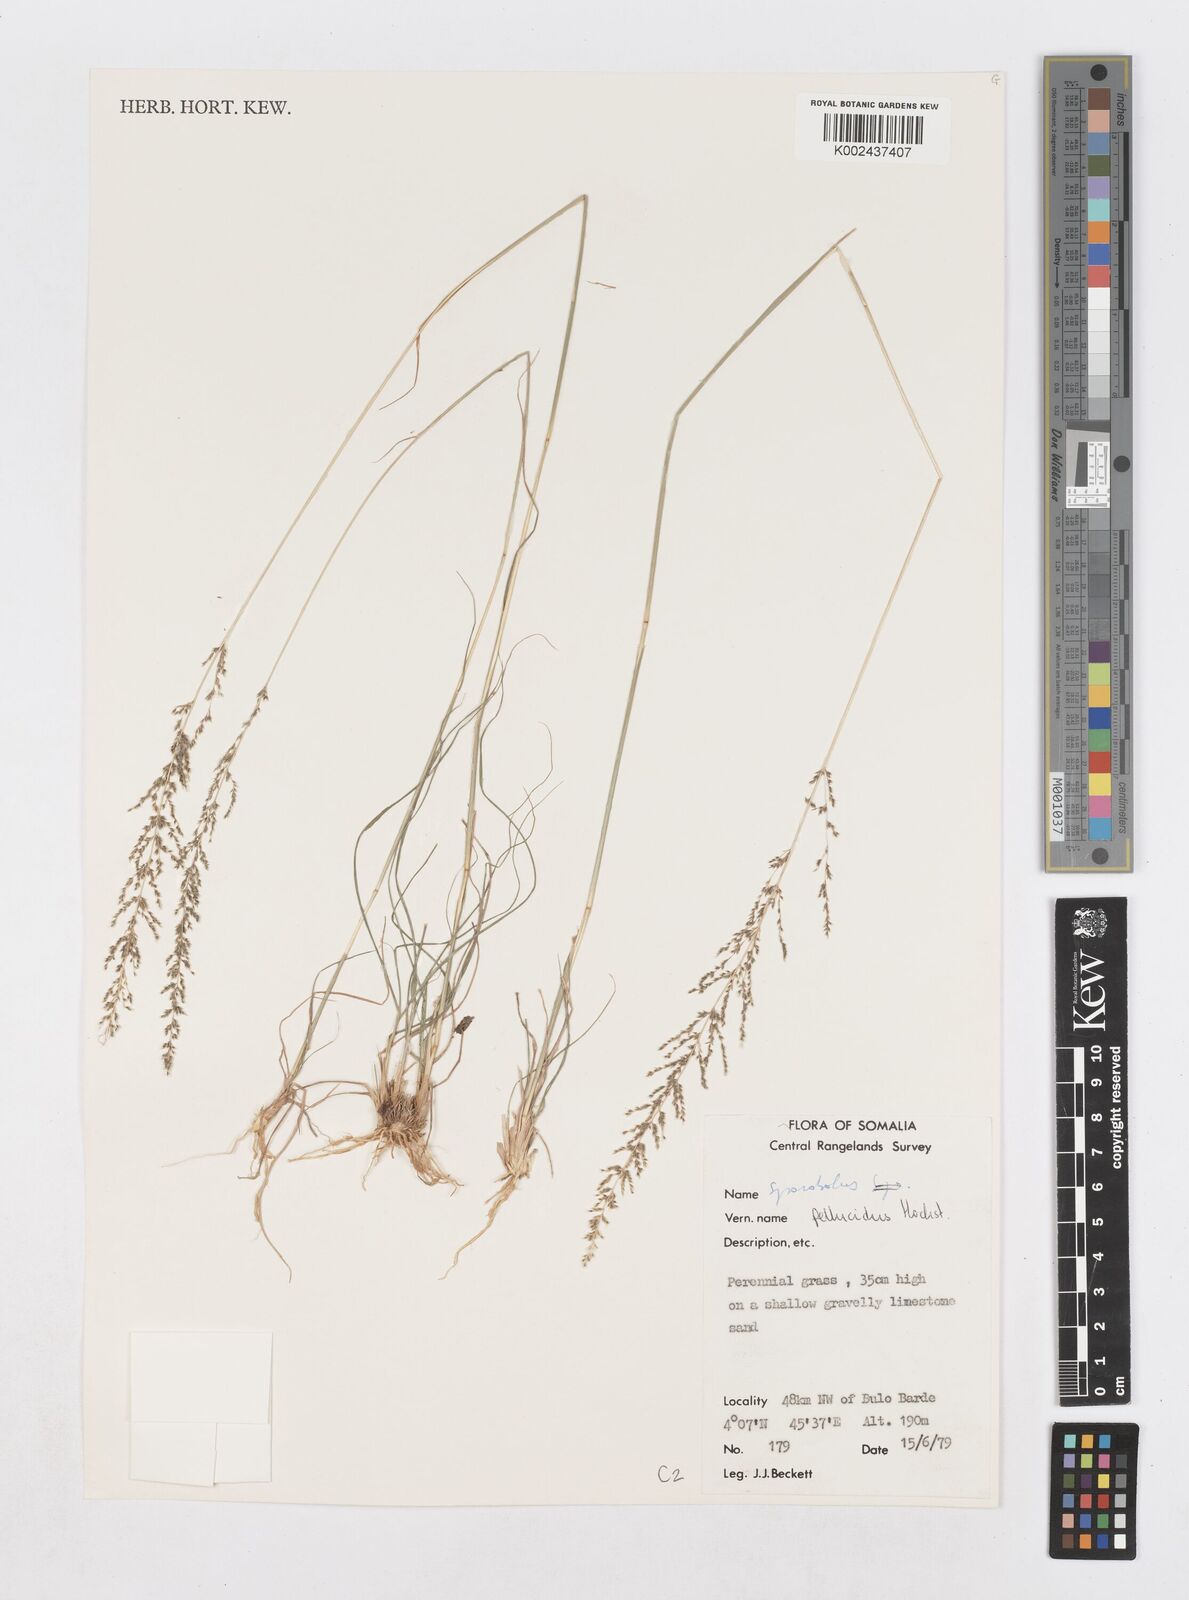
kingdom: Plantae
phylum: Tracheophyta
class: Liliopsida
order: Poales
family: Poaceae
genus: Sporobolus
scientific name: Sporobolus pellucidus
